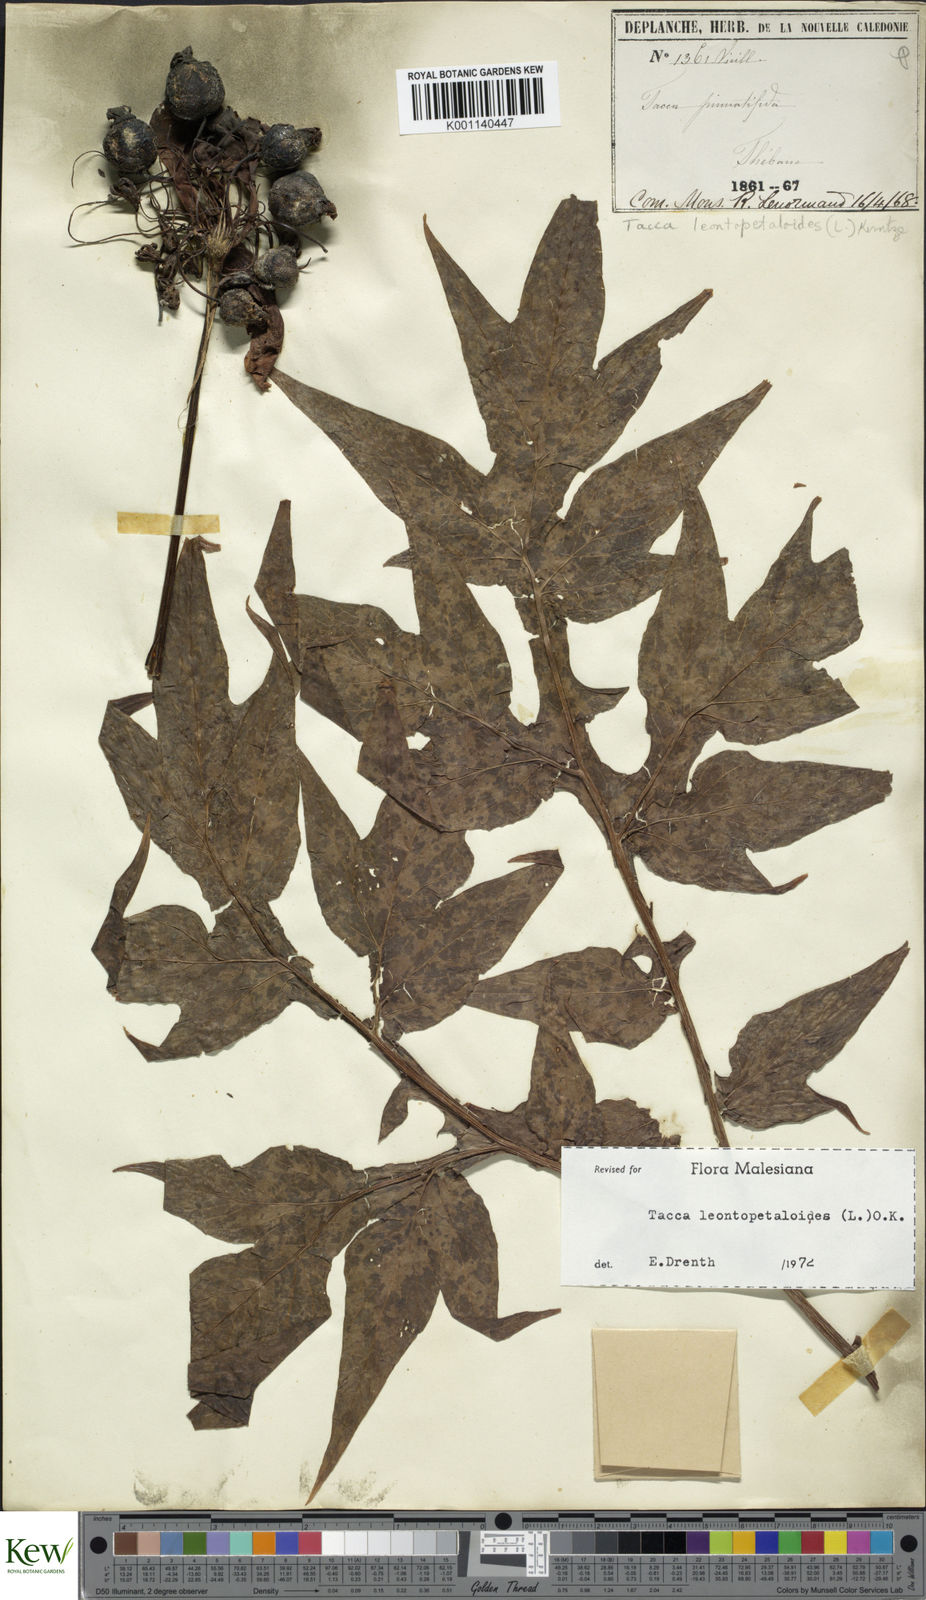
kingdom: Plantae
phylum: Tracheophyta
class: Liliopsida
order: Dioscoreales
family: Dioscoreaceae
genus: Tacca
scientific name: Tacca leontopetaloides
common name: Arrowroot
